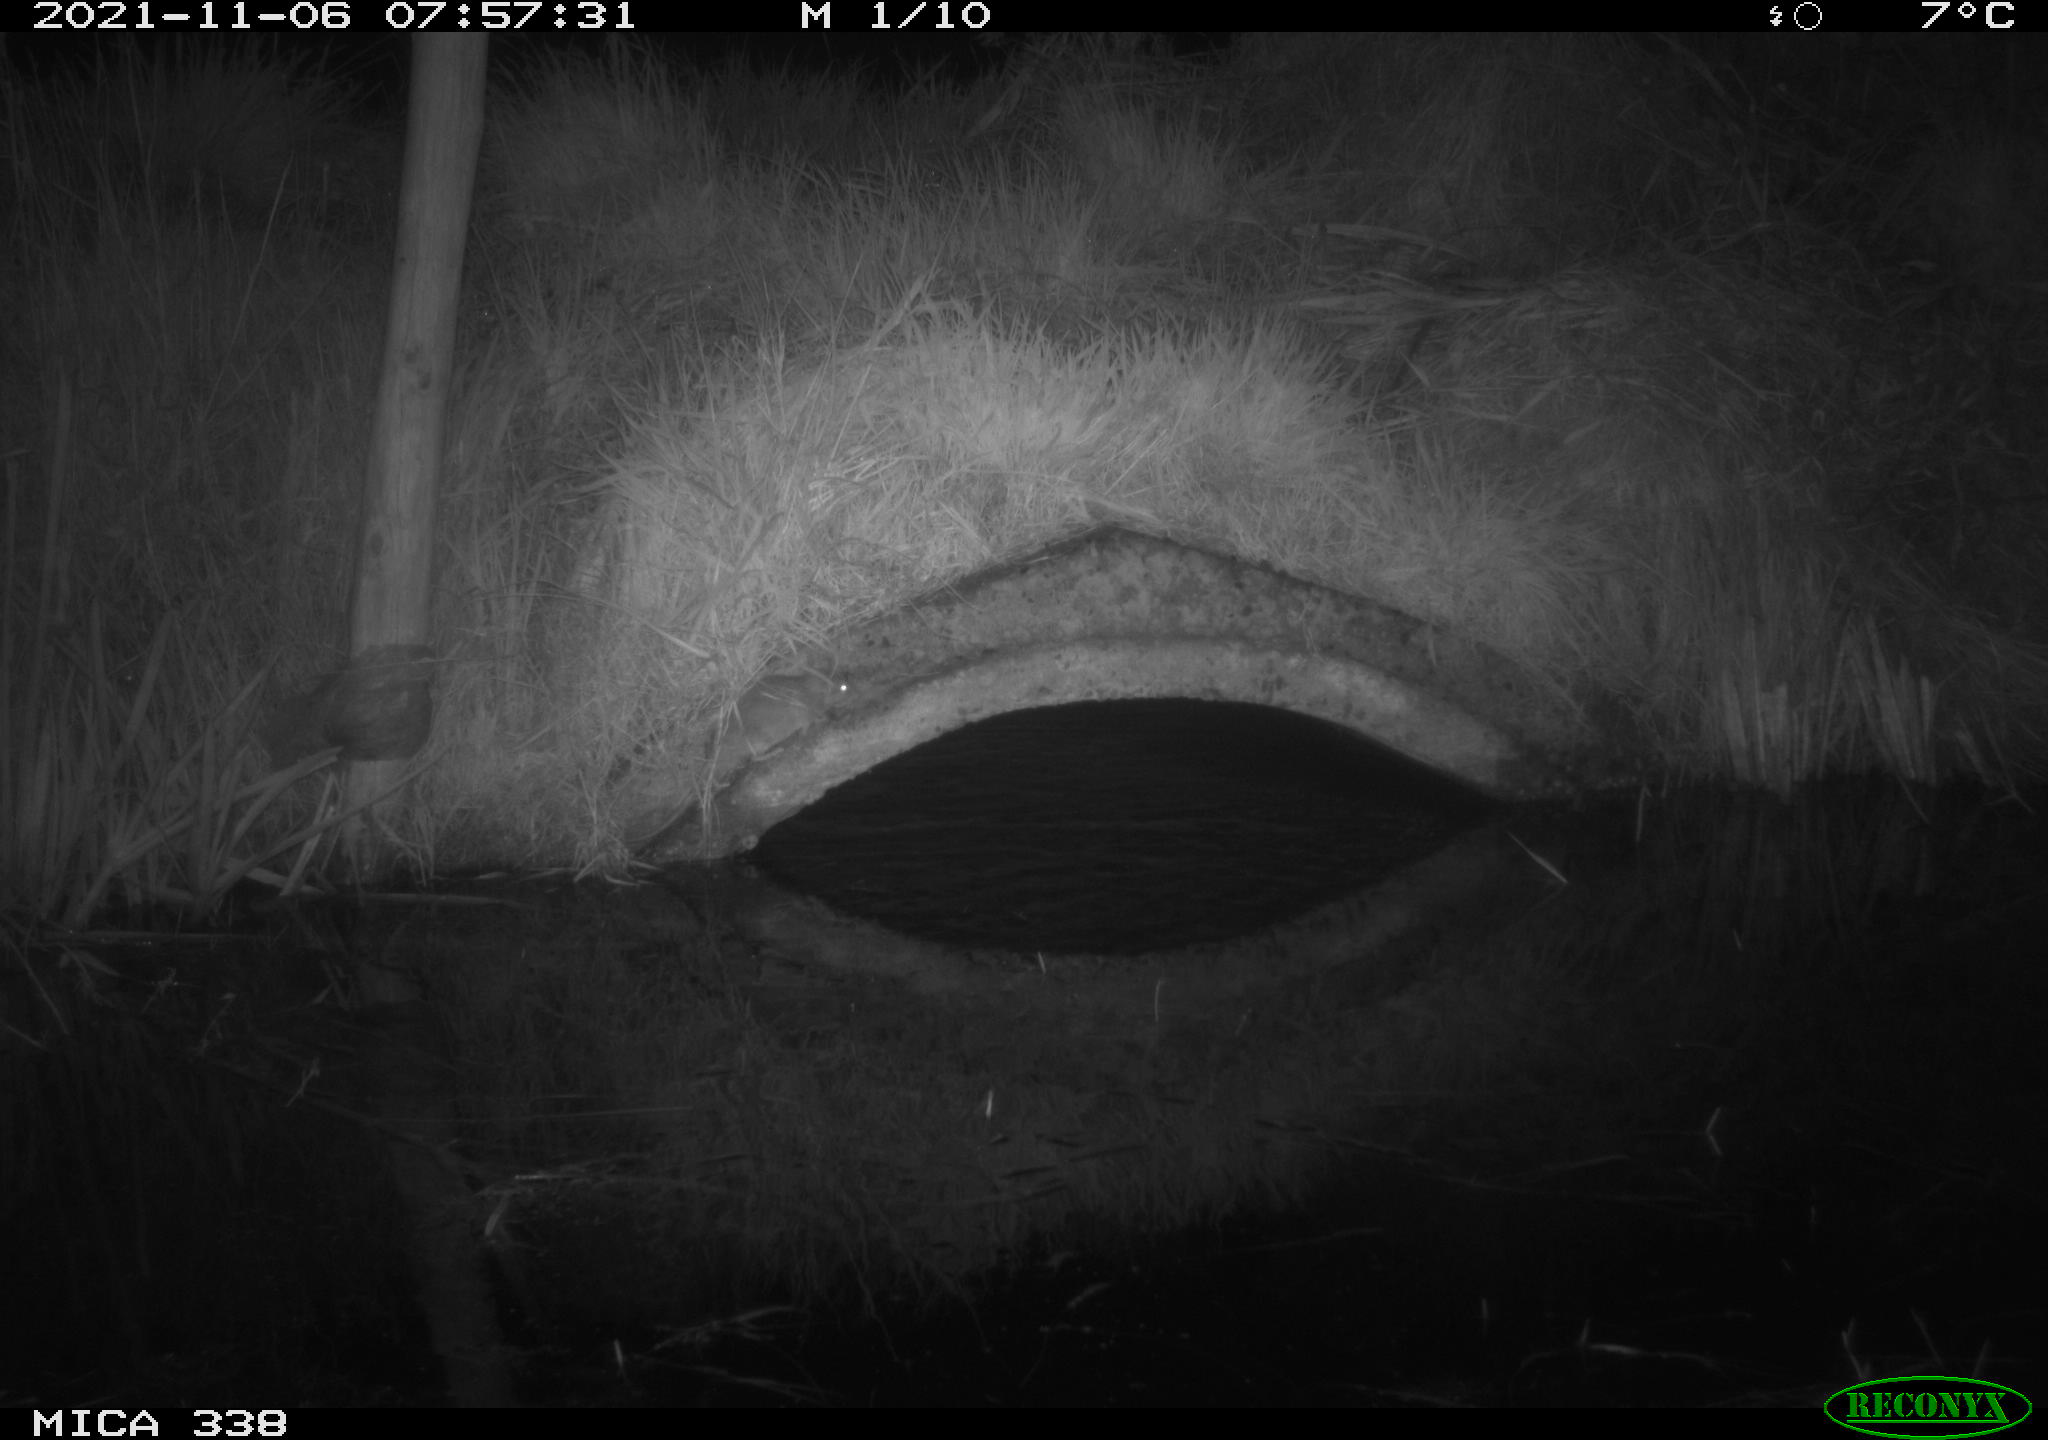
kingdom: Animalia
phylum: Chordata
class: Mammalia
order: Rodentia
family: Muridae
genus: Rattus
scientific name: Rattus norvegicus
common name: Brown rat
